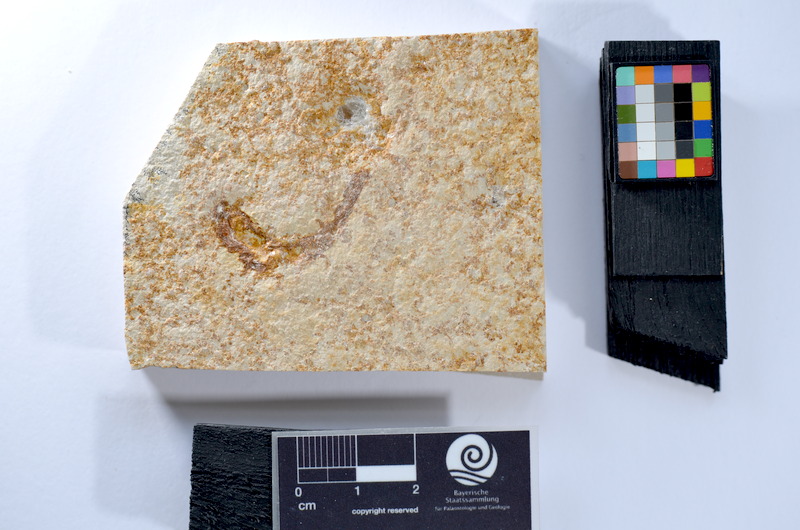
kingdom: Animalia
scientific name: Animalia
